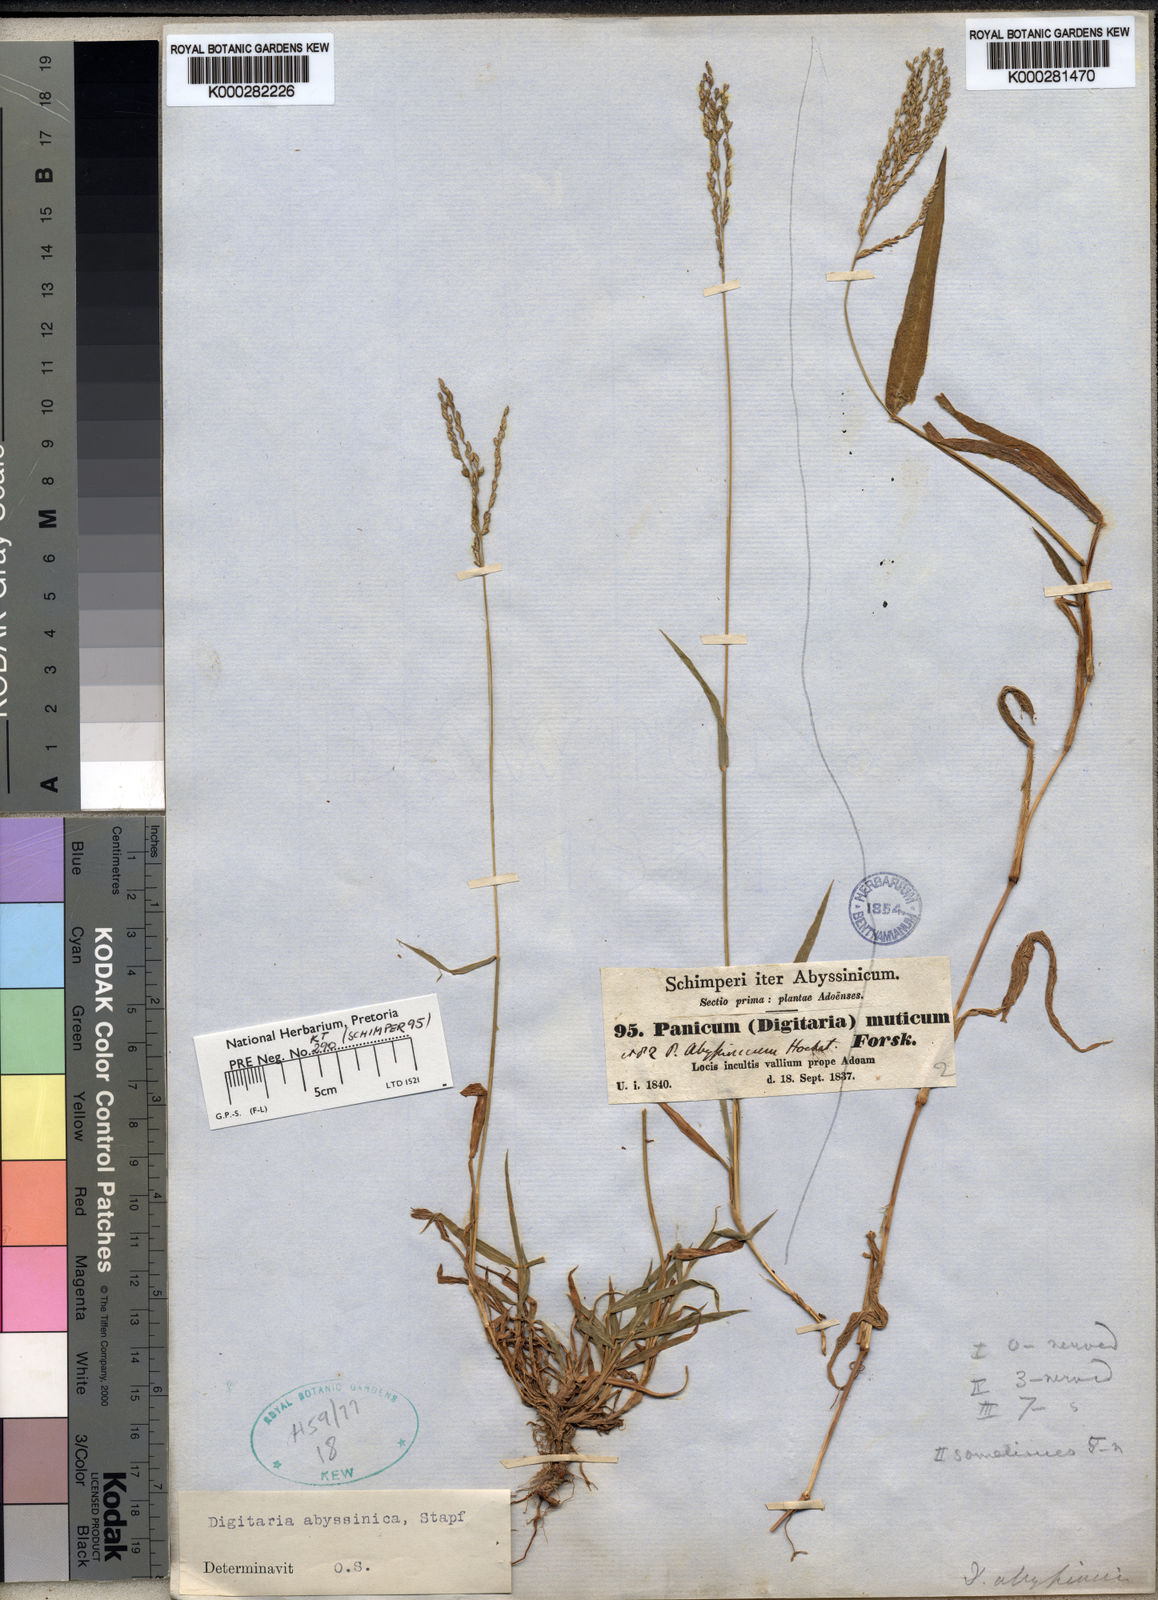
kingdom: Plantae
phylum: Tracheophyta
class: Liliopsida
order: Poales
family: Poaceae
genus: Digitaria
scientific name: Digitaria abyssinica
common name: African couchgrass
